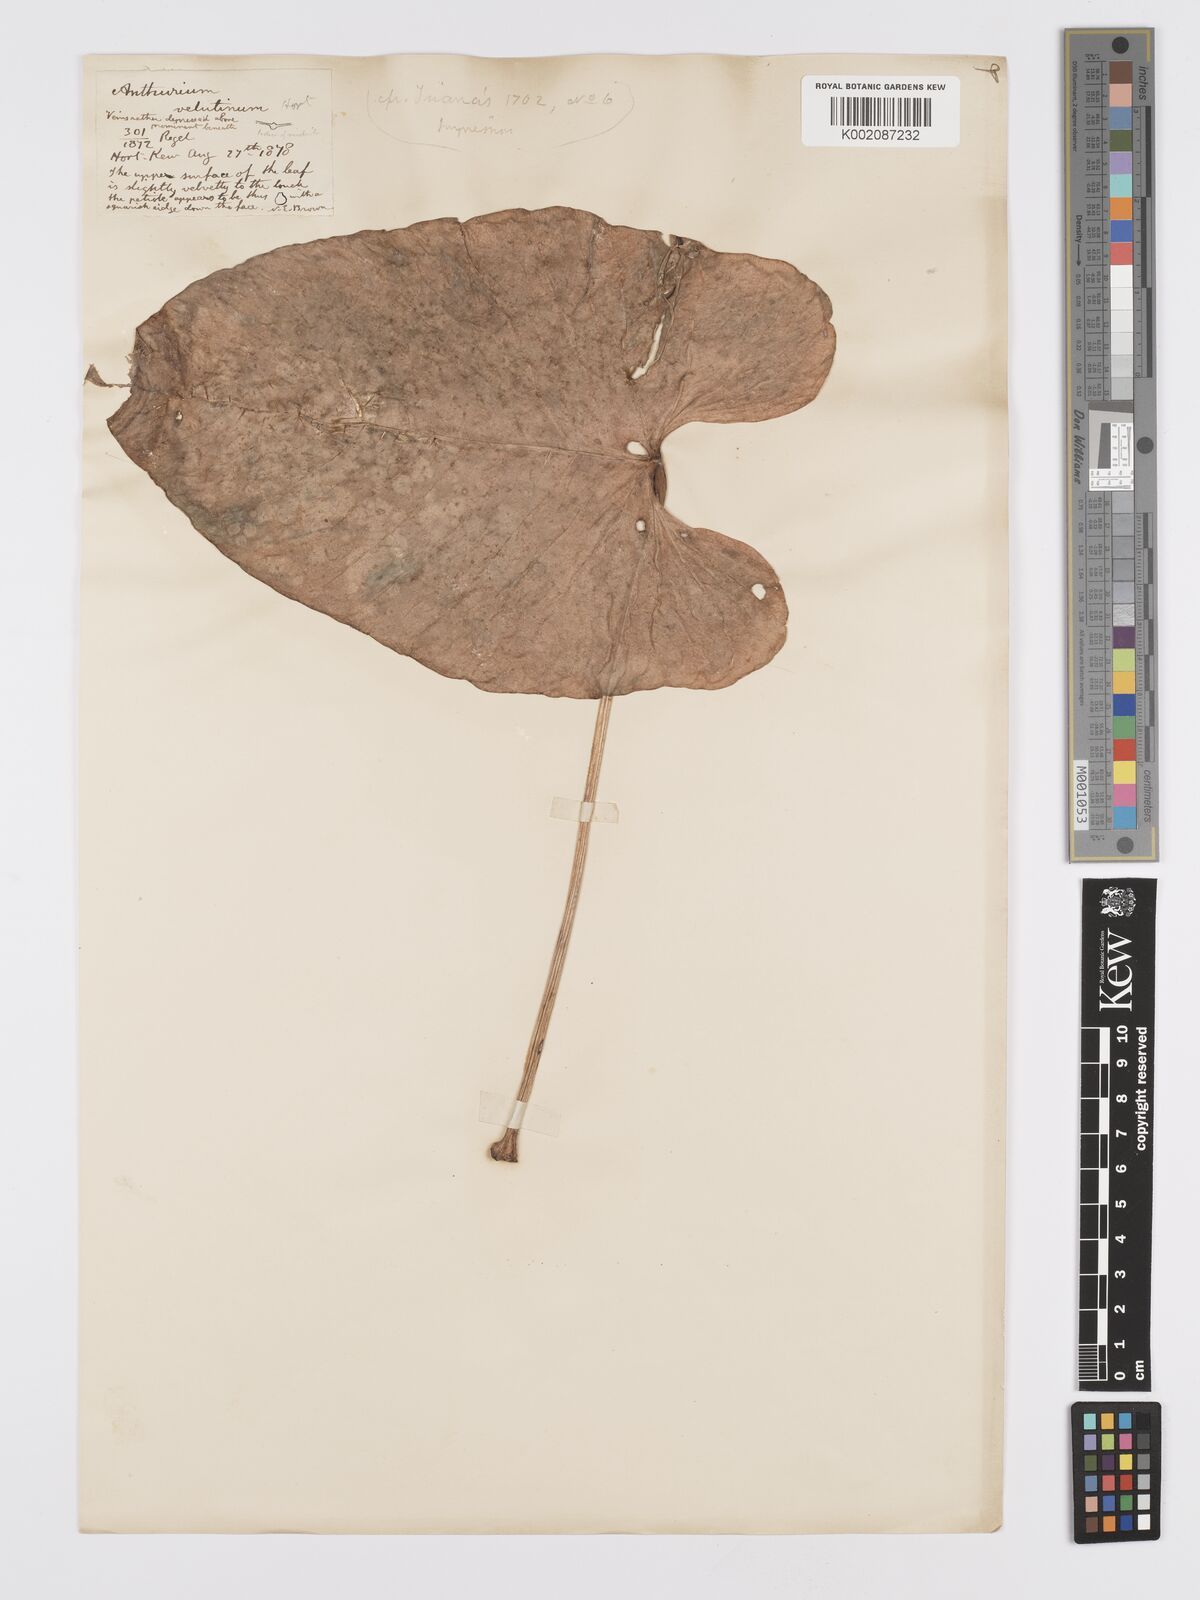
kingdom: Plantae
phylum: Tracheophyta
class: Liliopsida
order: Alismatales
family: Araceae
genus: Anthurium
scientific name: Anthurium velutinum
